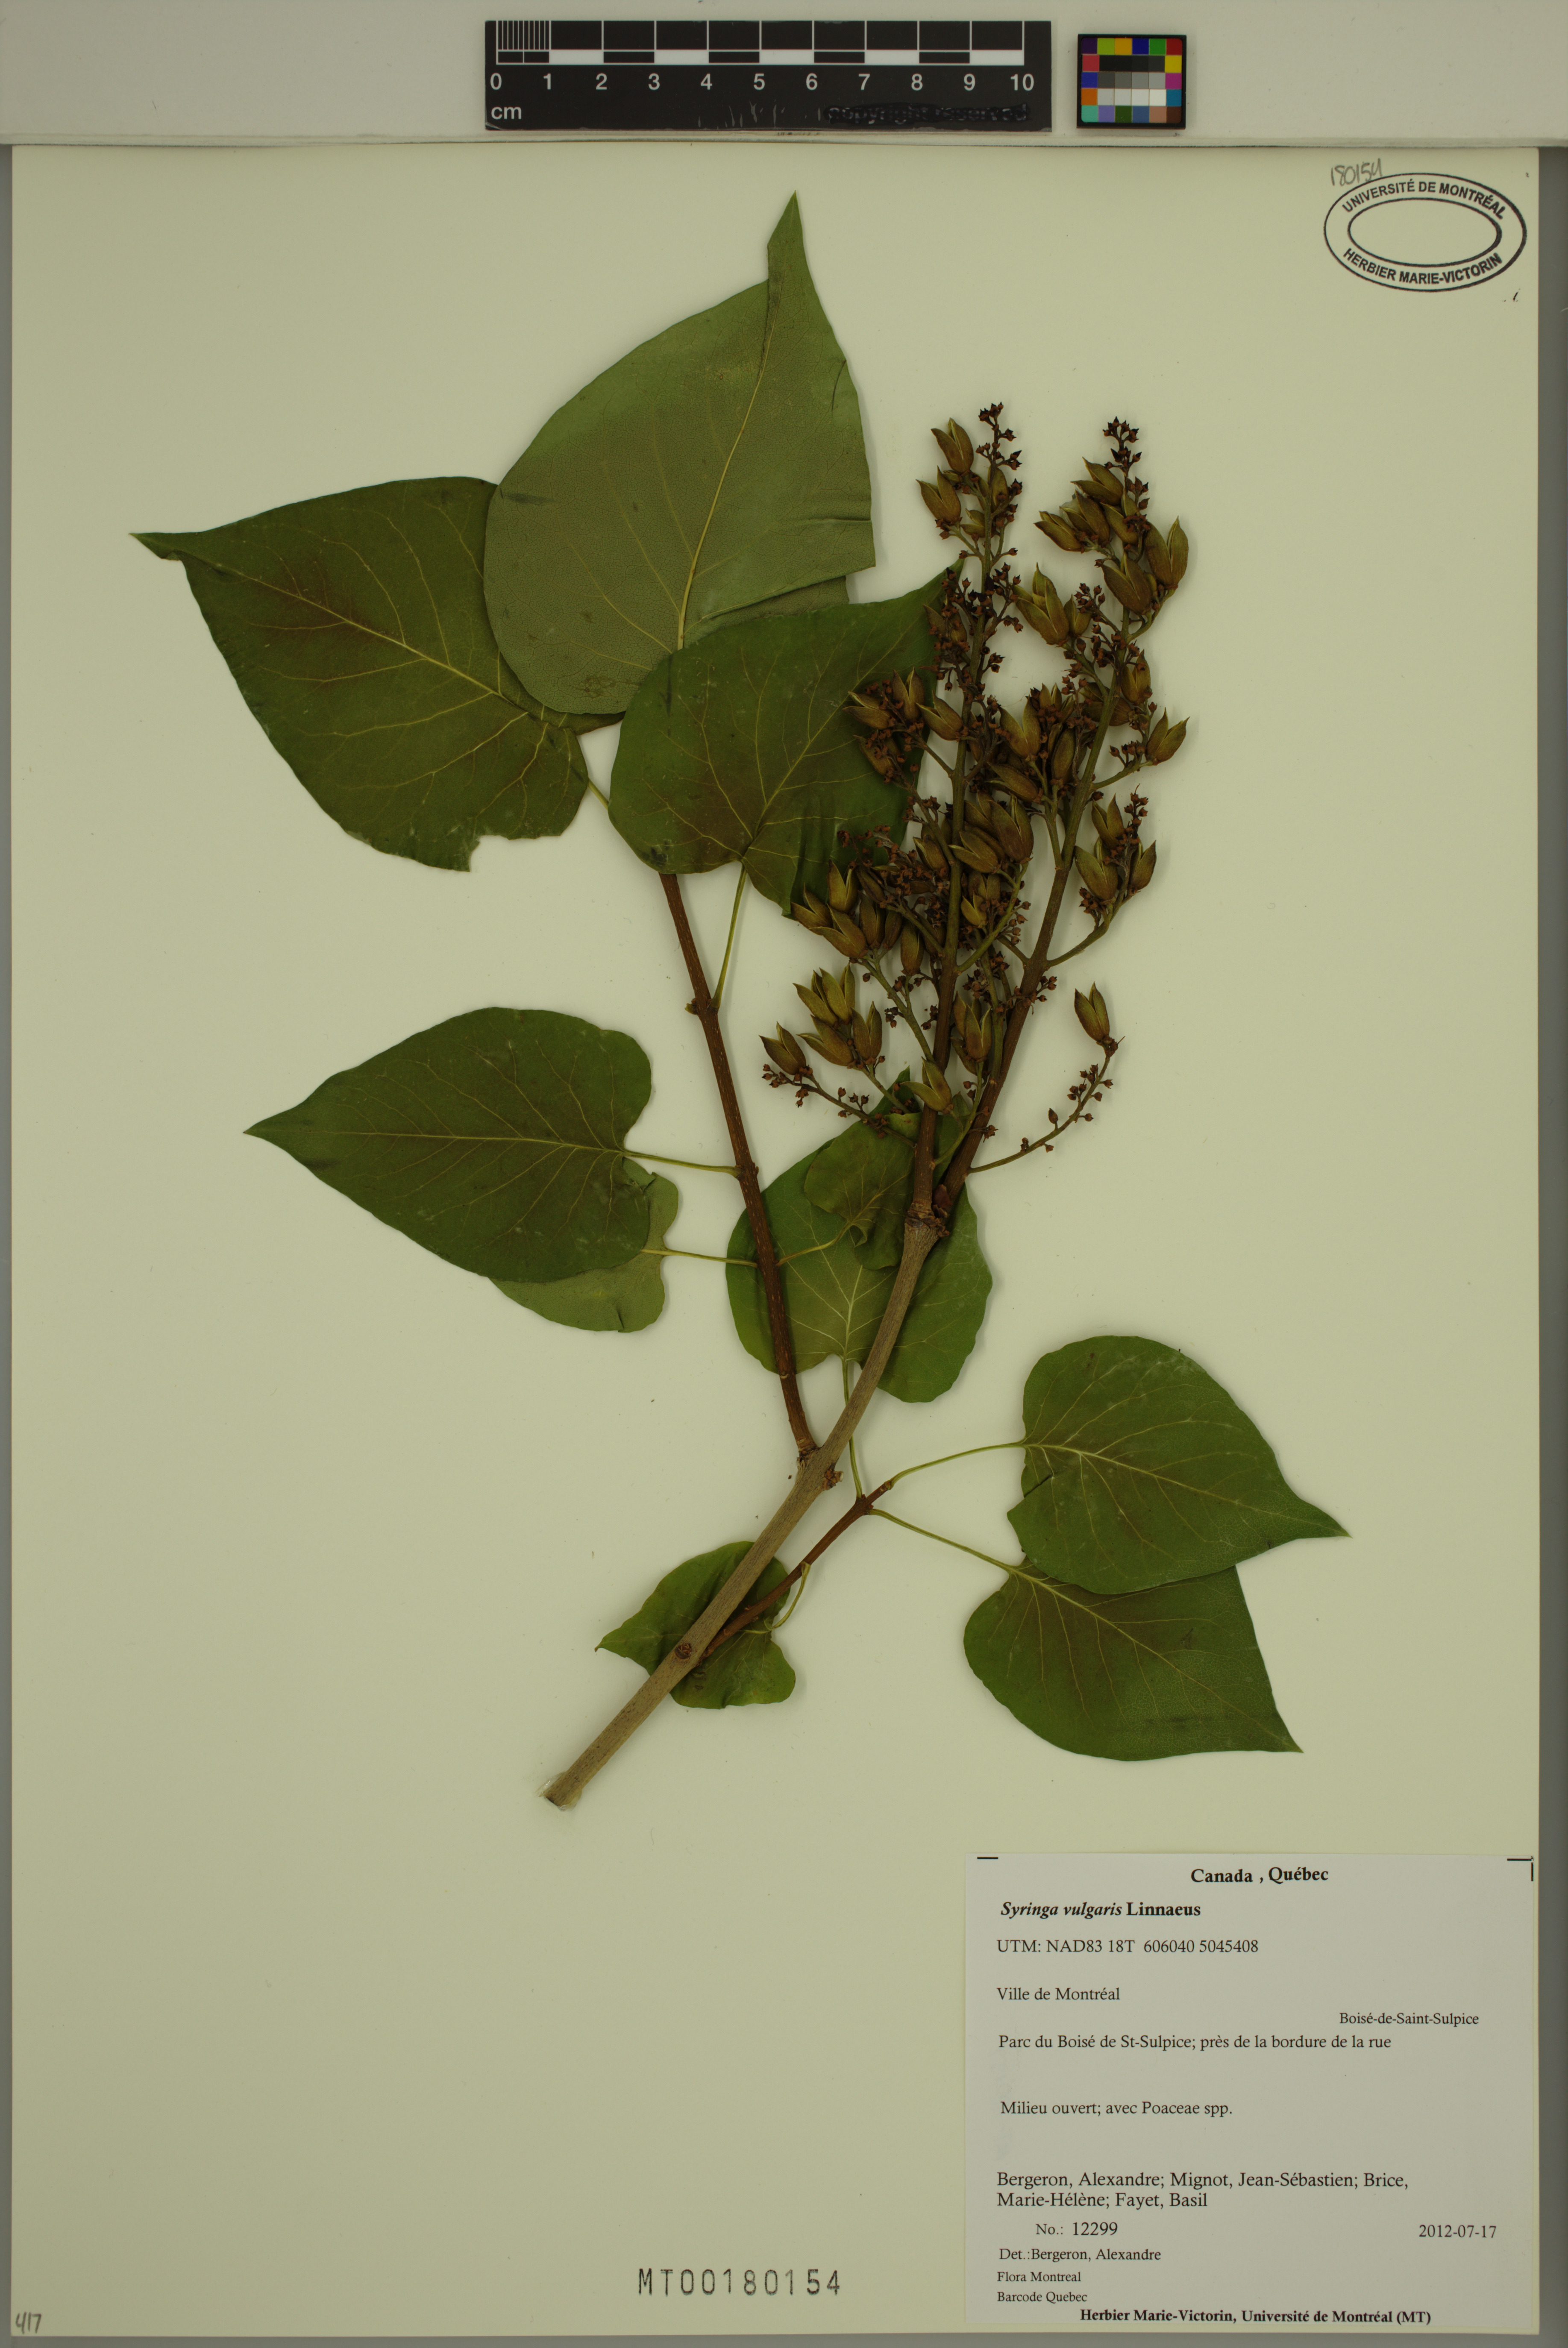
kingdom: Plantae
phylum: Tracheophyta
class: Magnoliopsida
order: Lamiales
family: Oleaceae
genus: Syringa
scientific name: Syringa vulgaris
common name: Common lilac
